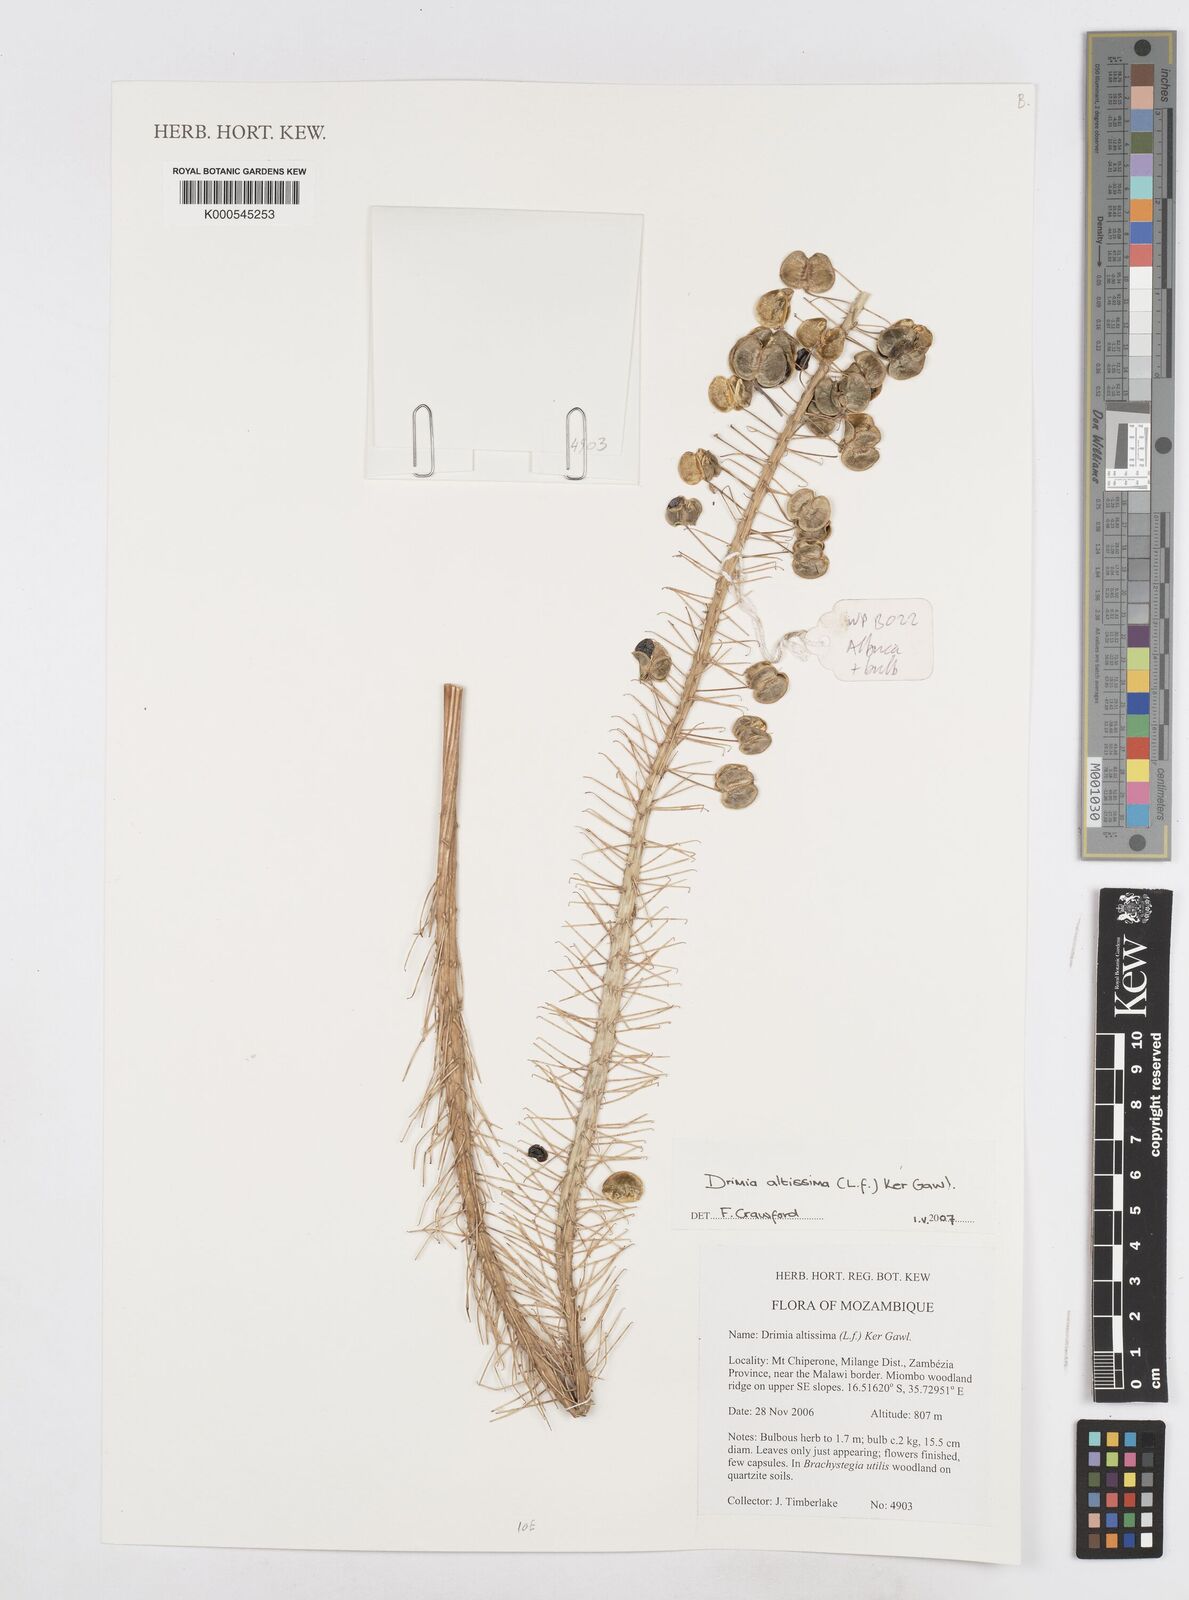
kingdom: Plantae
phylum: Tracheophyta
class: Liliopsida
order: Asparagales
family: Asparagaceae
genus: Drimia
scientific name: Drimia altissima
